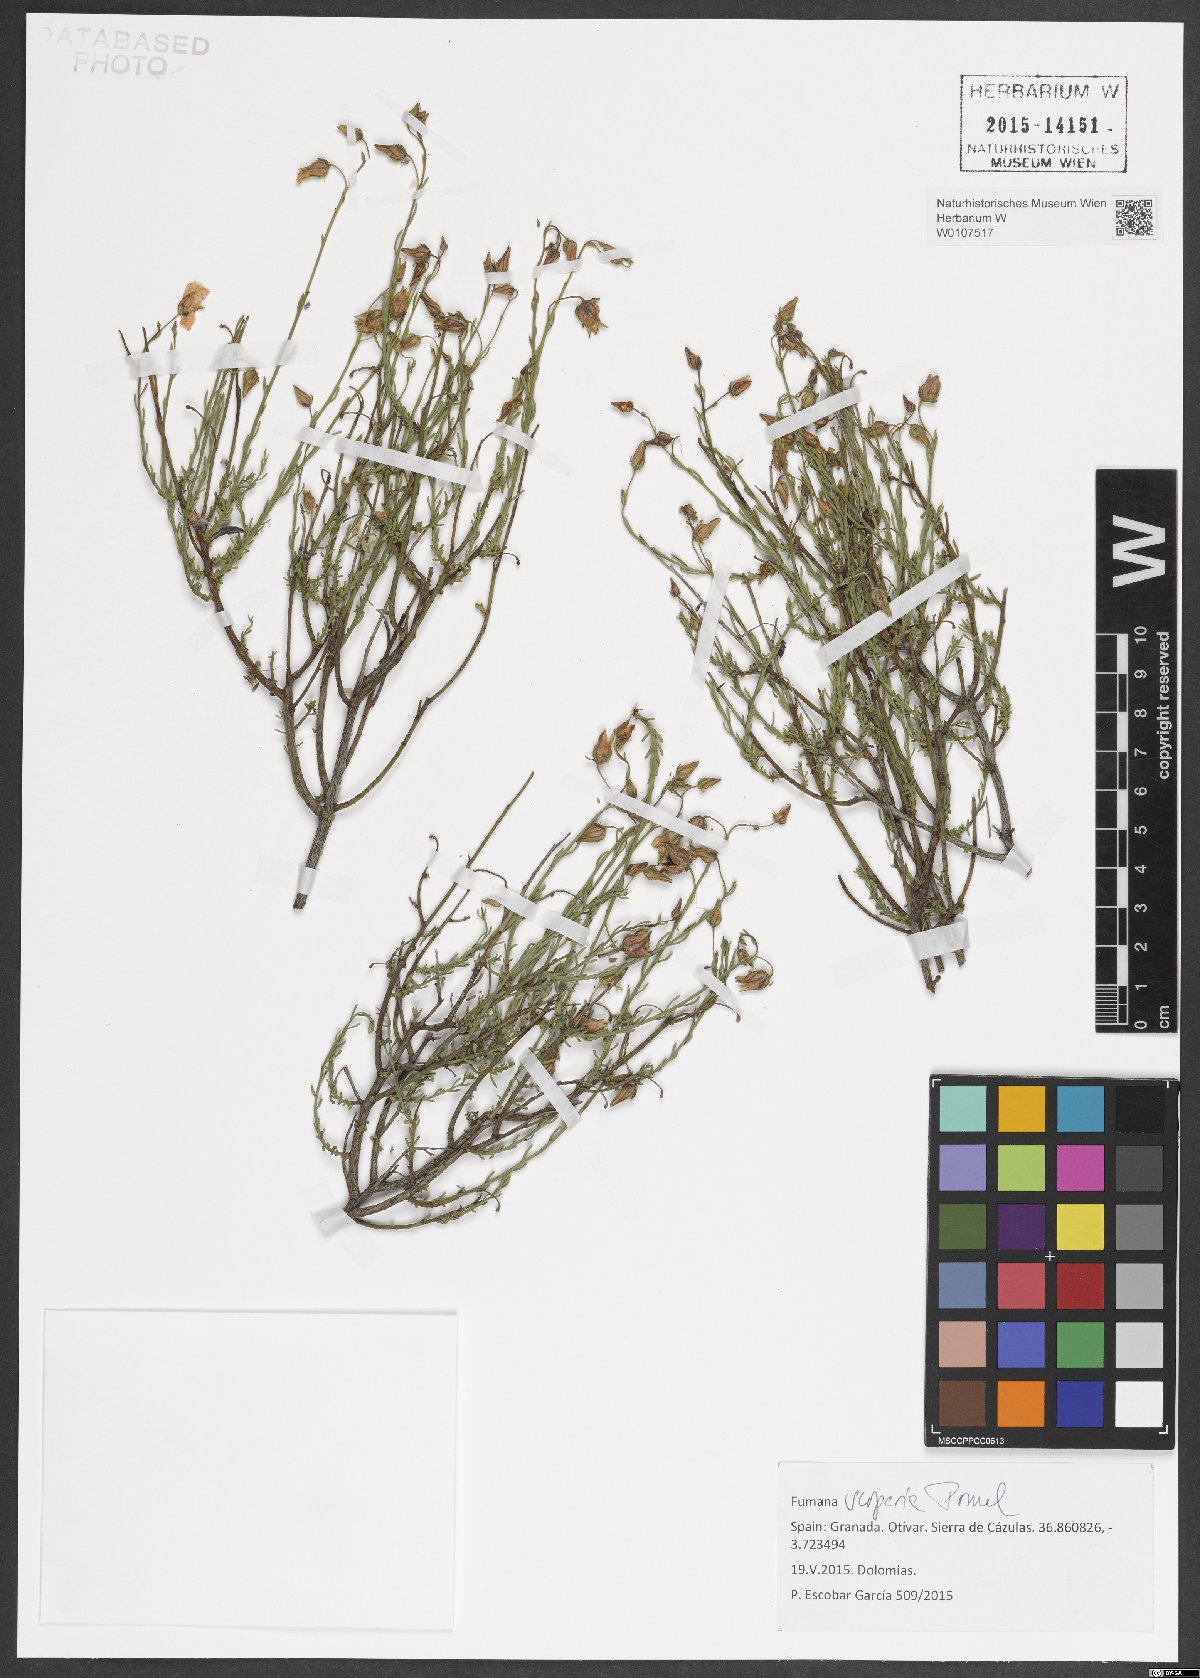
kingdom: Plantae
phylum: Tracheophyta
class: Magnoliopsida
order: Malvales
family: Cistaceae
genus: Fumana
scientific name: Fumana scoparia
